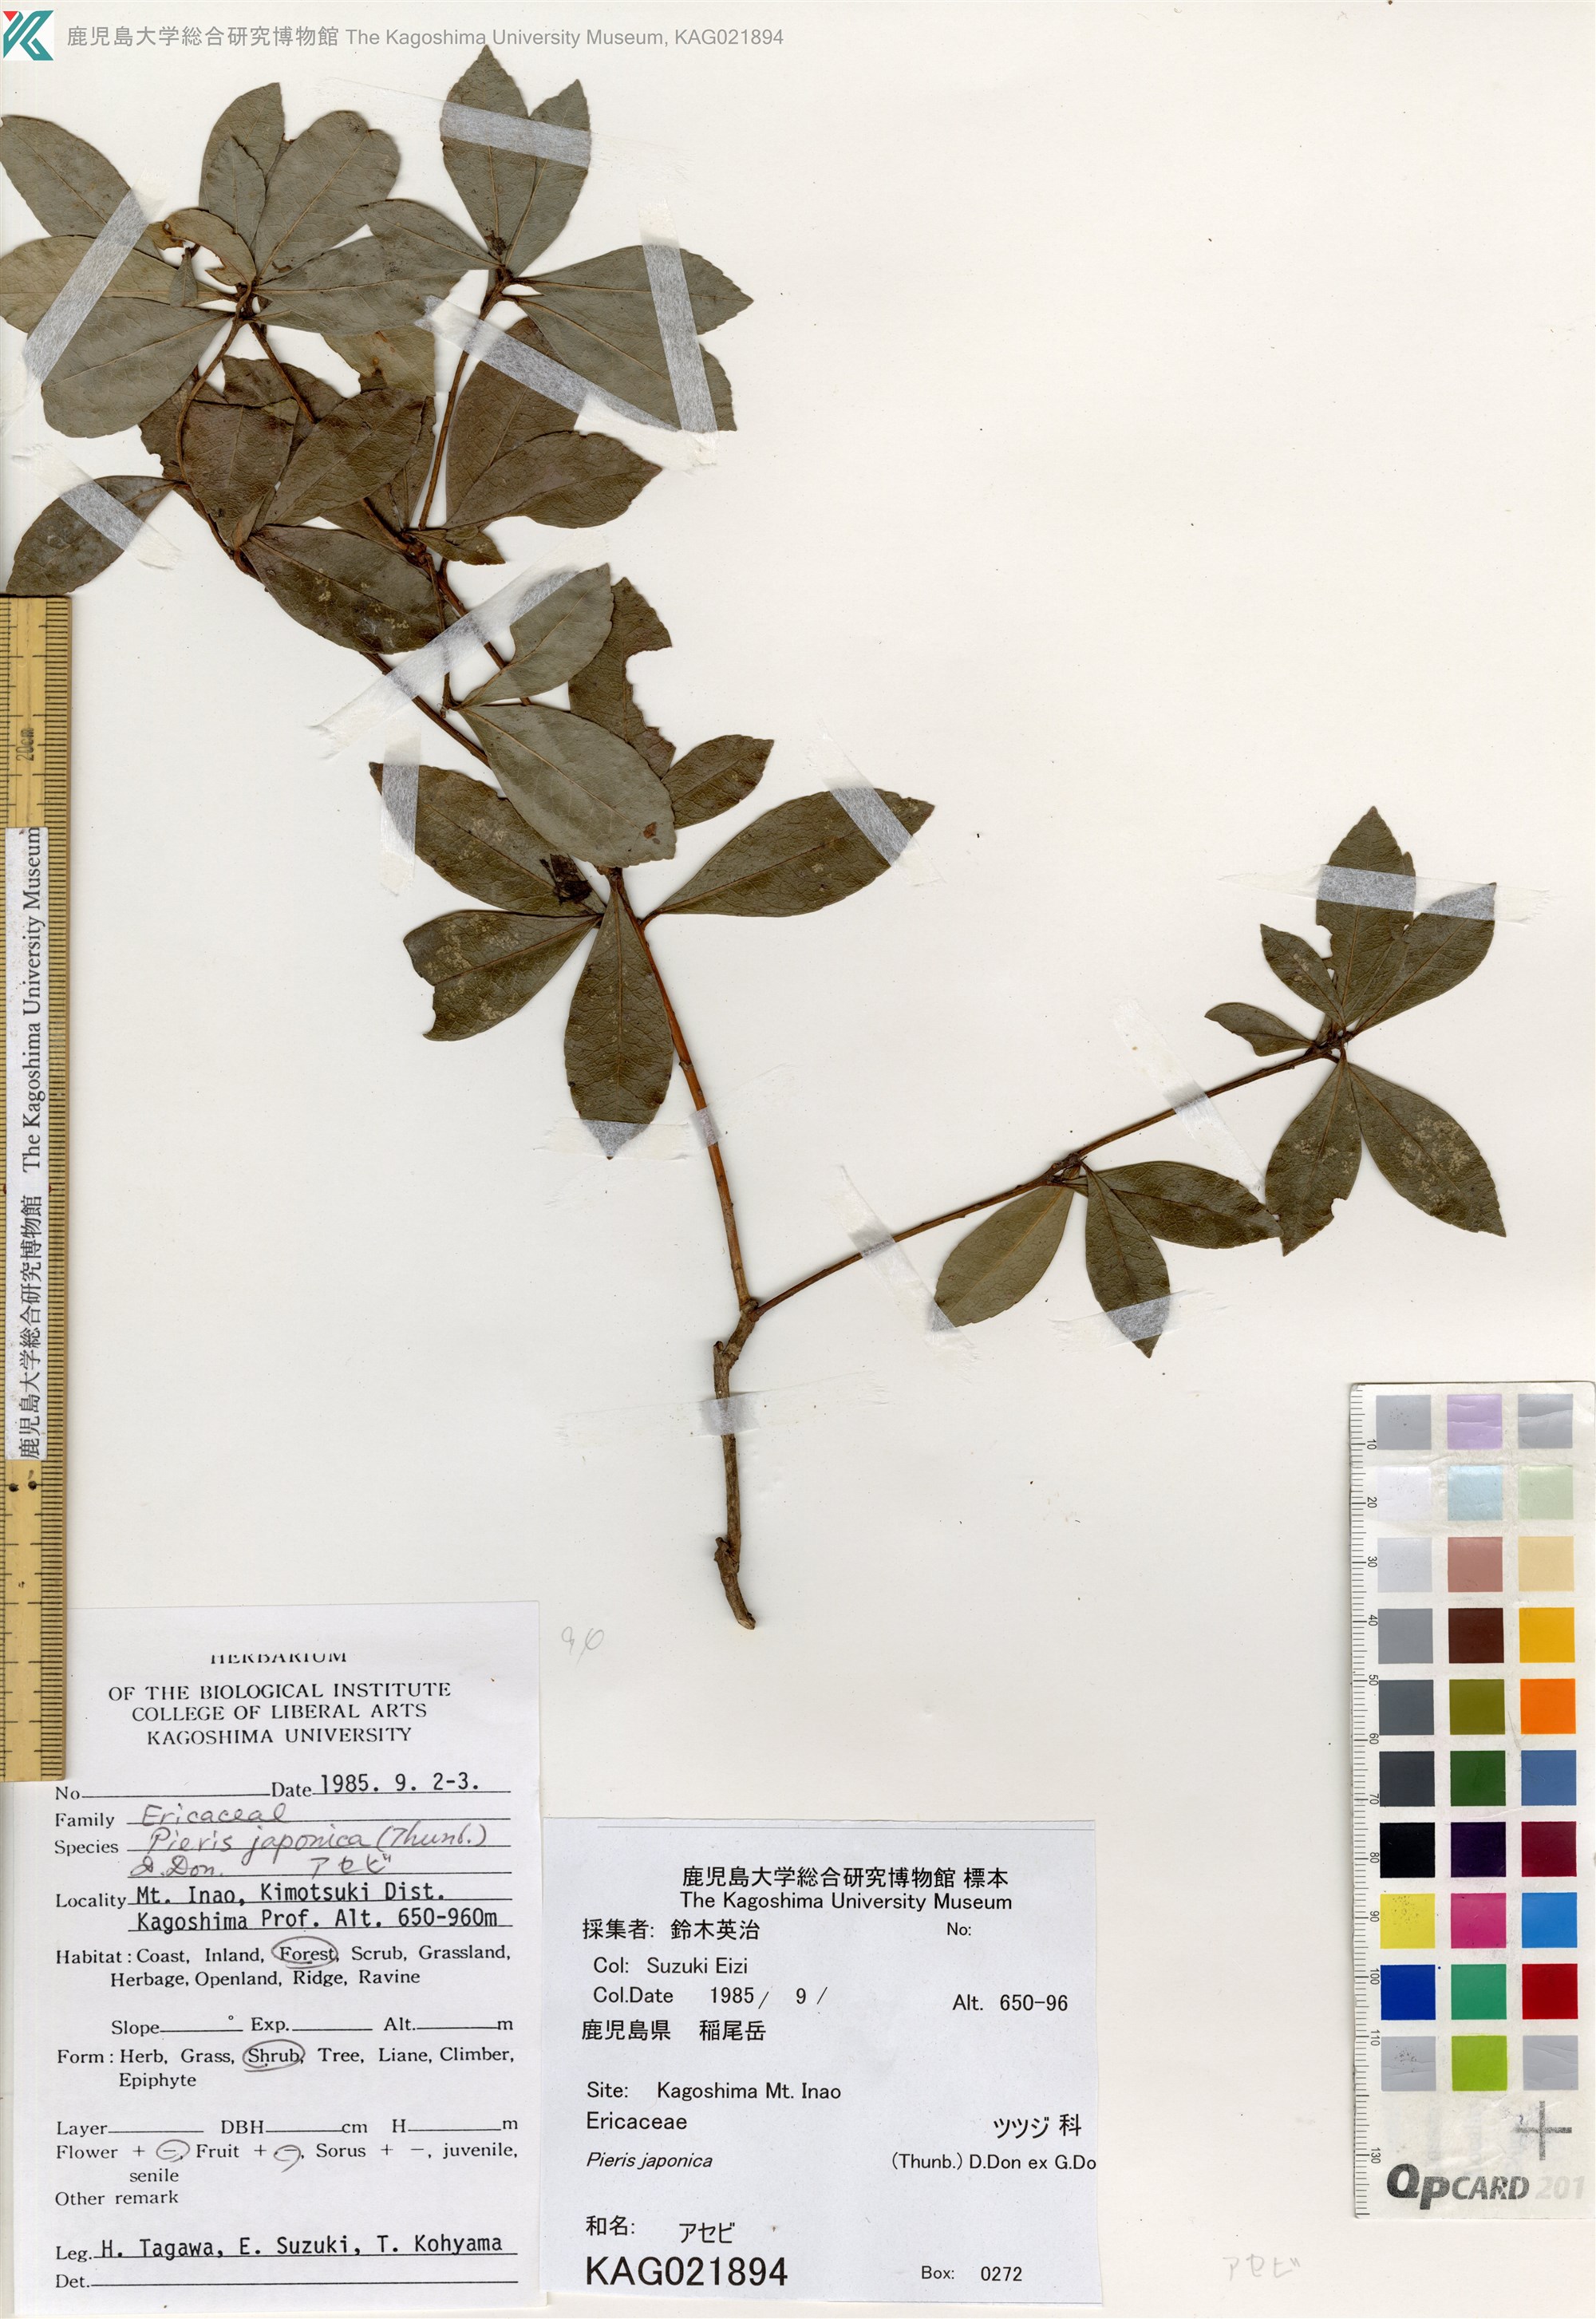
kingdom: Plantae
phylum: Tracheophyta
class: Magnoliopsida
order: Ericales
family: Ericaceae
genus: Pieris
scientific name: Pieris japonica
